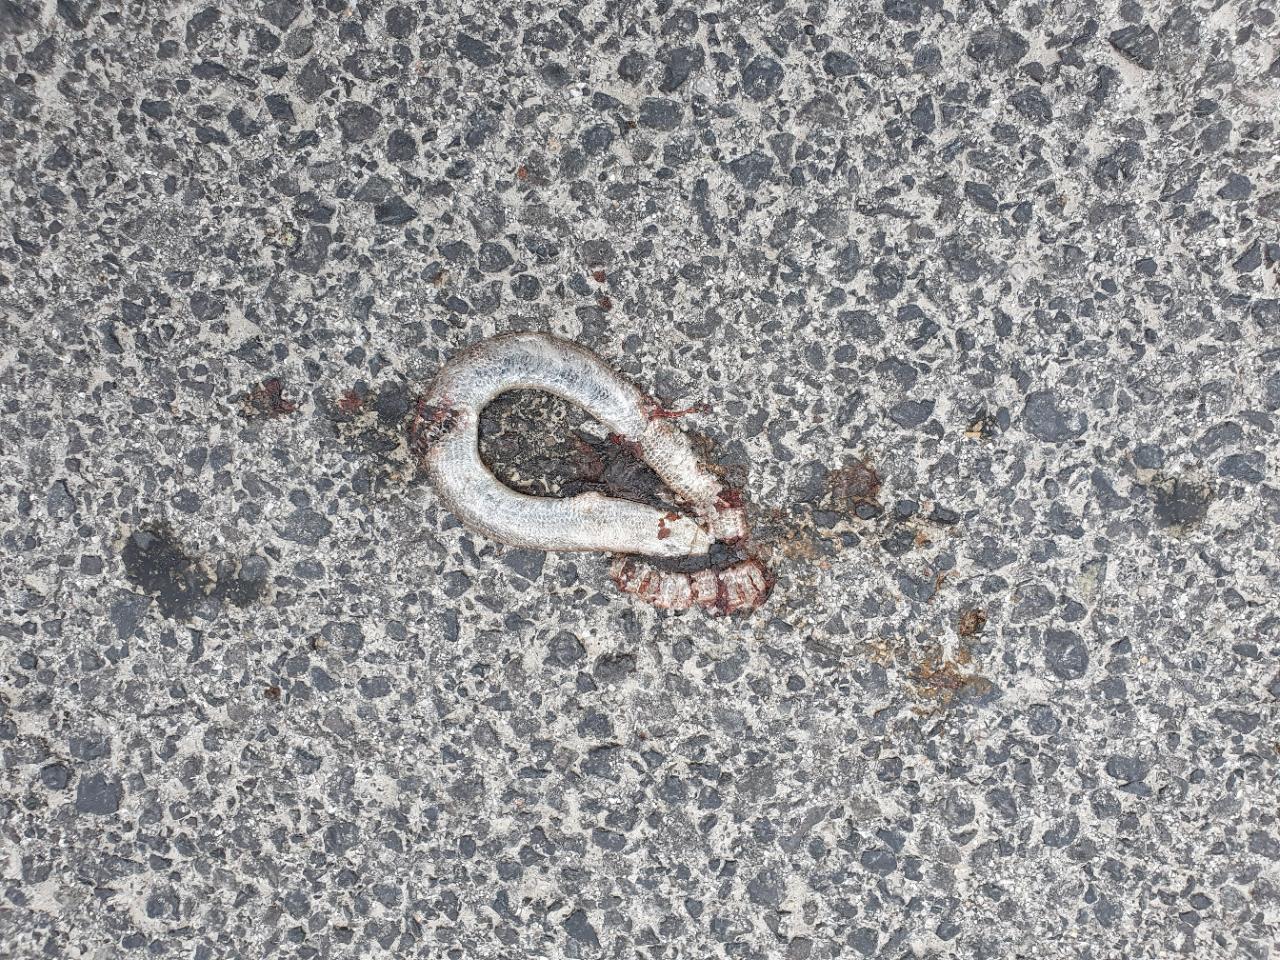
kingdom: Animalia
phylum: Chordata
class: Squamata
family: Anguidae
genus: Anguis
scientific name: Anguis fragilis
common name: Slow worm
